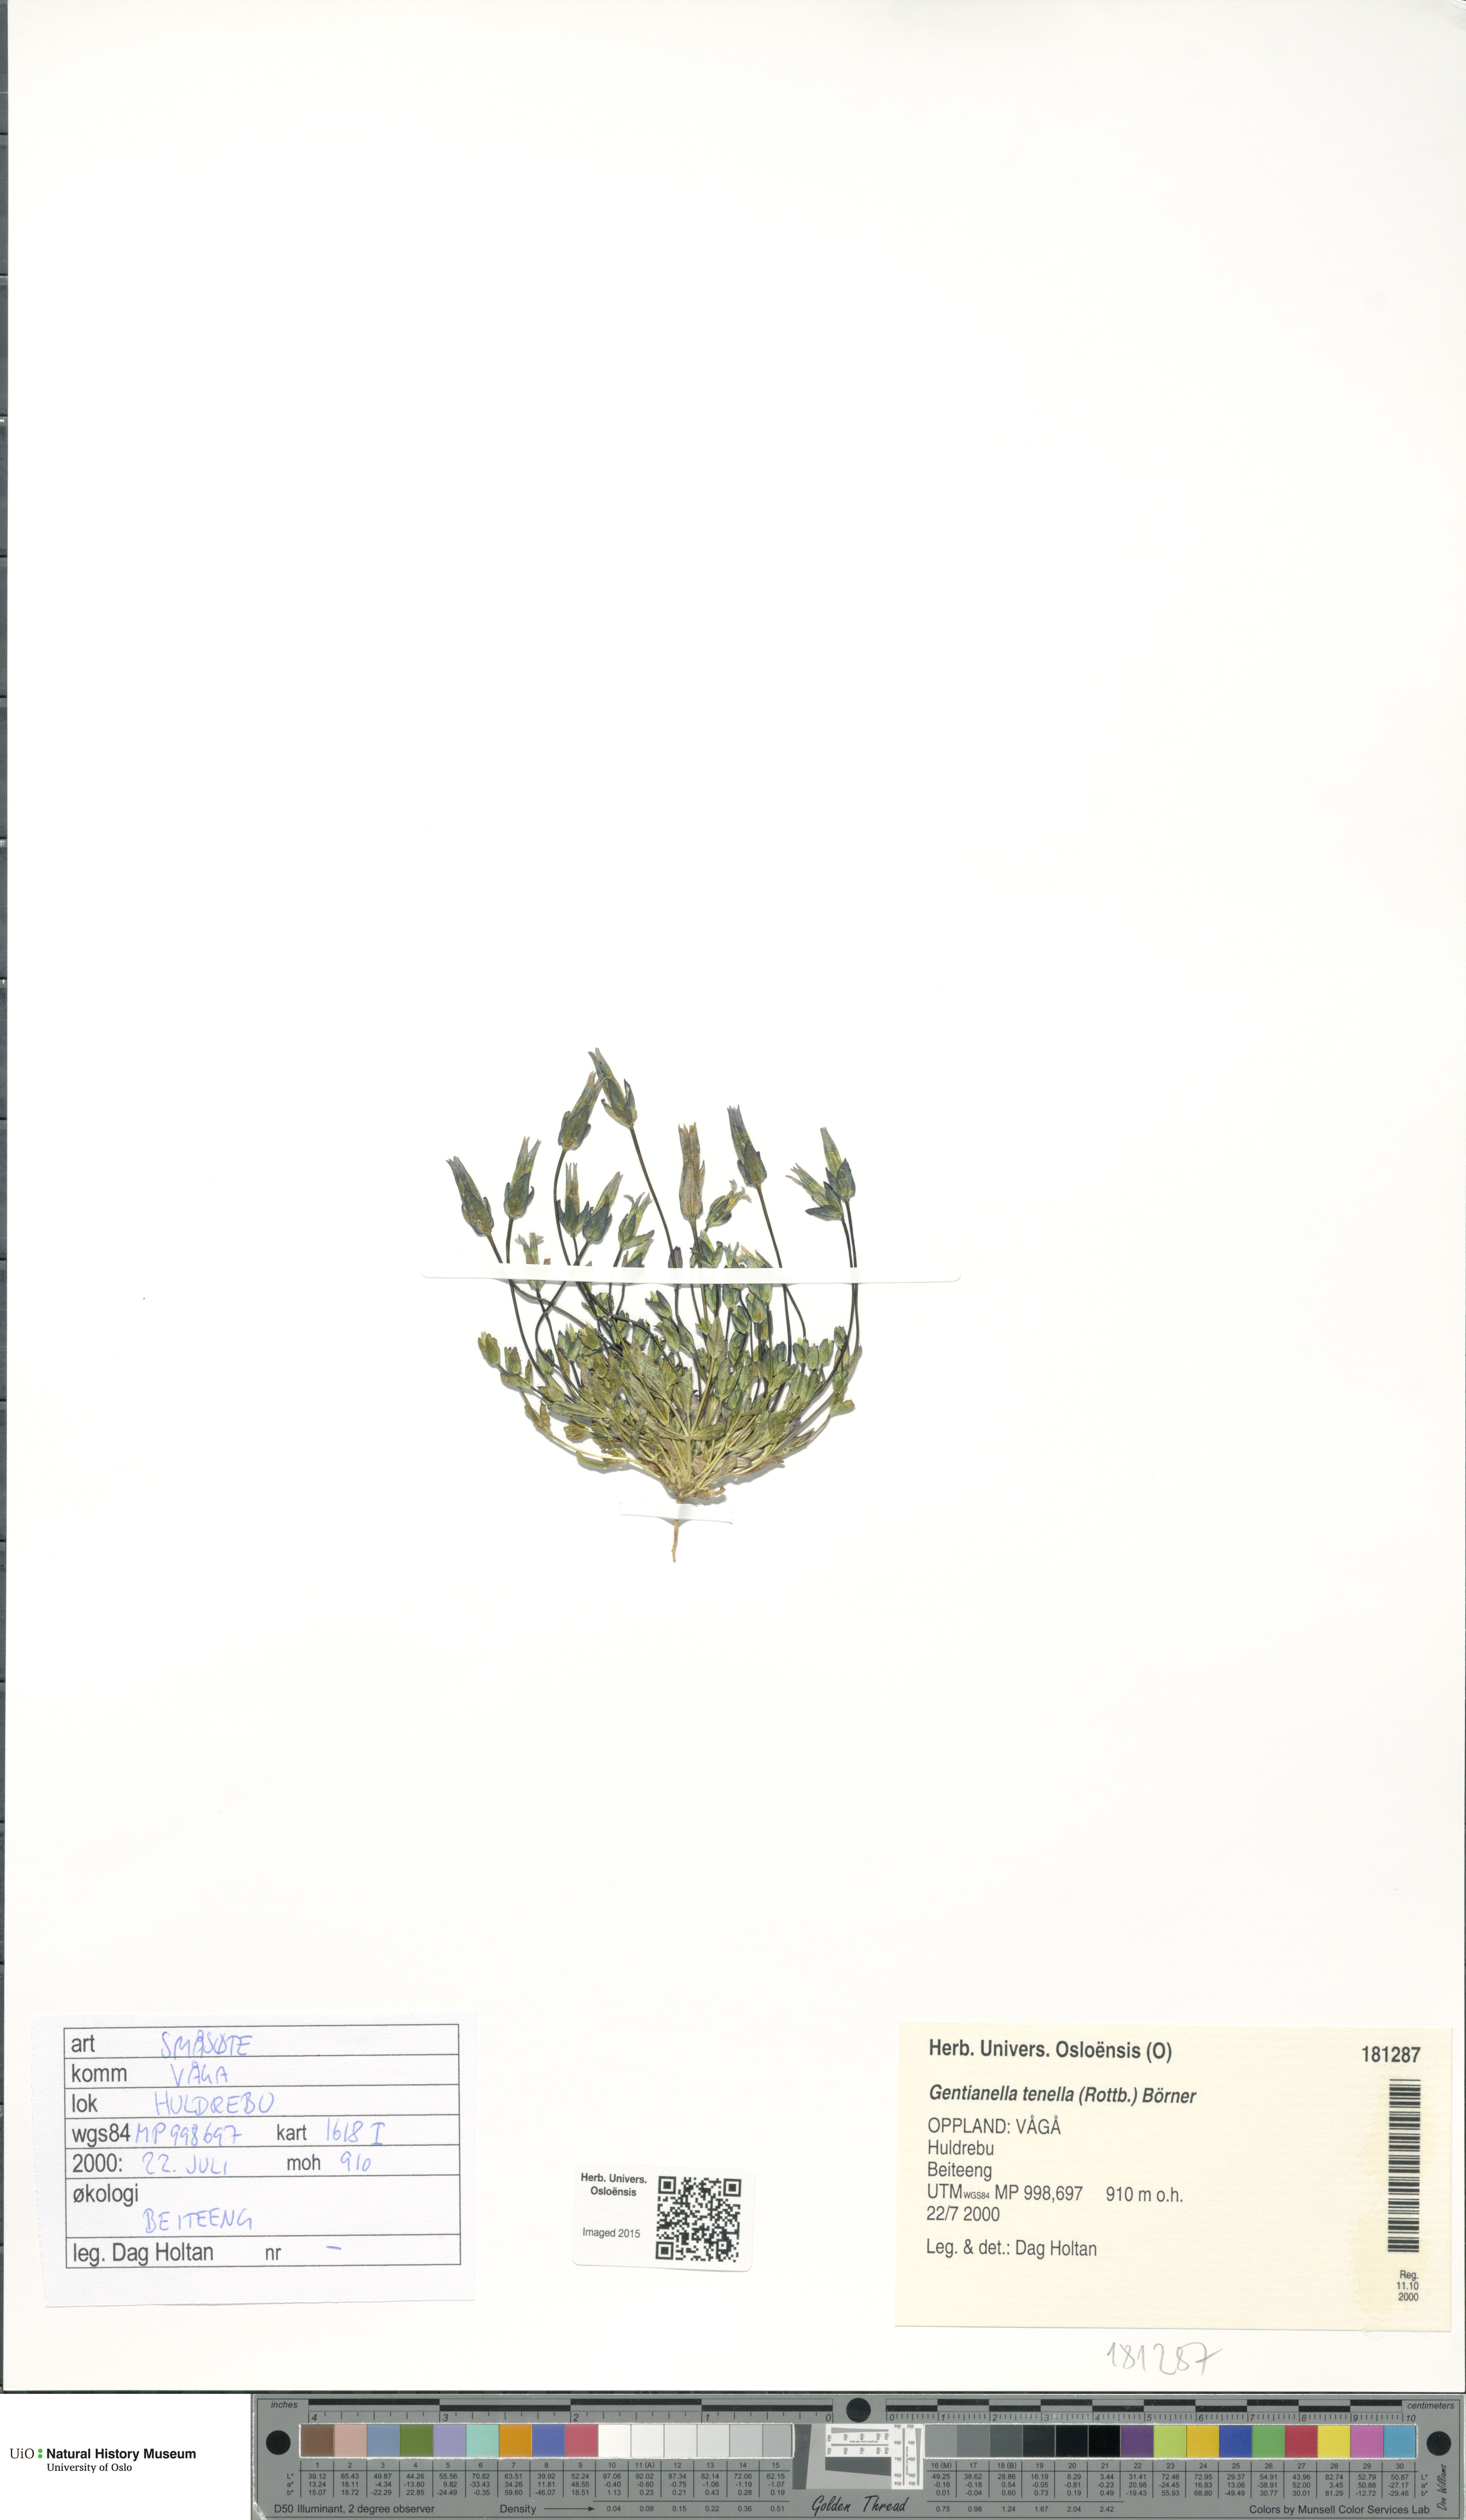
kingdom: Plantae
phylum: Tracheophyta
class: Magnoliopsida
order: Gentianales
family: Gentianaceae
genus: Comastoma
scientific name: Comastoma tenellum
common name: Dane's dwarf gentian
